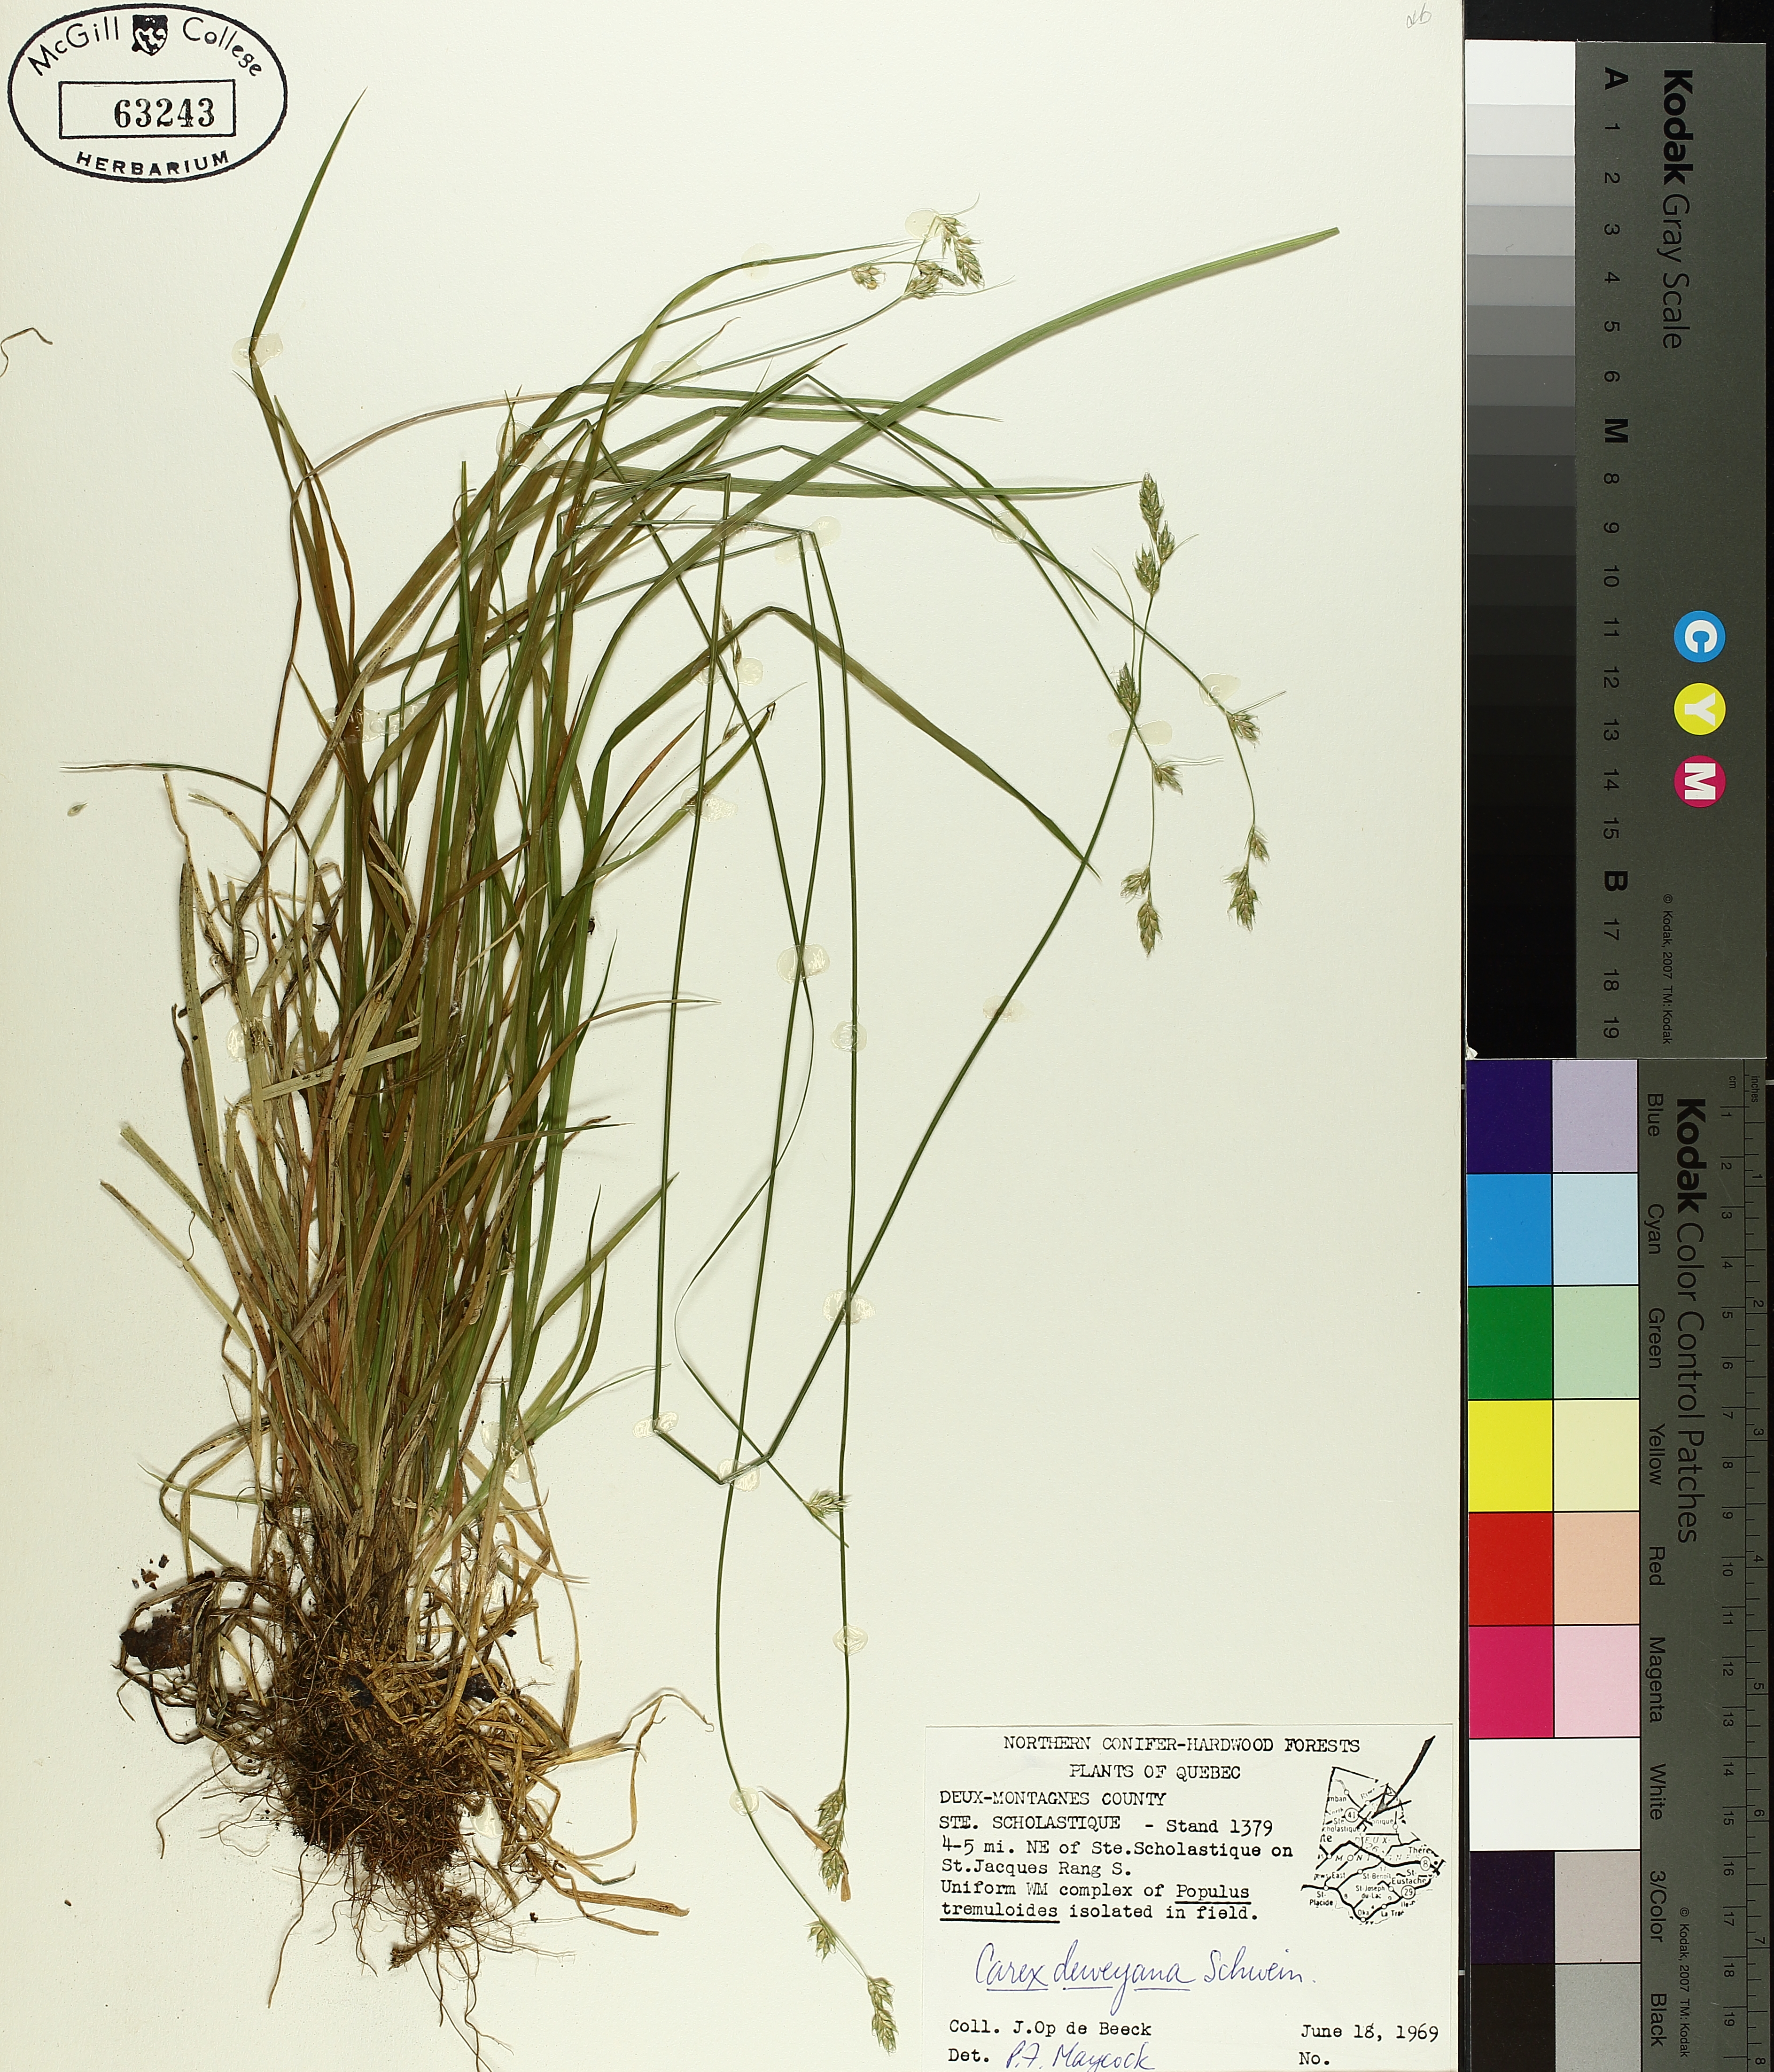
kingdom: Plantae
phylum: Tracheophyta
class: Liliopsida
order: Poales
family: Cyperaceae
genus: Carex
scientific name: Carex deweyana
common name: Dewey's sedge
